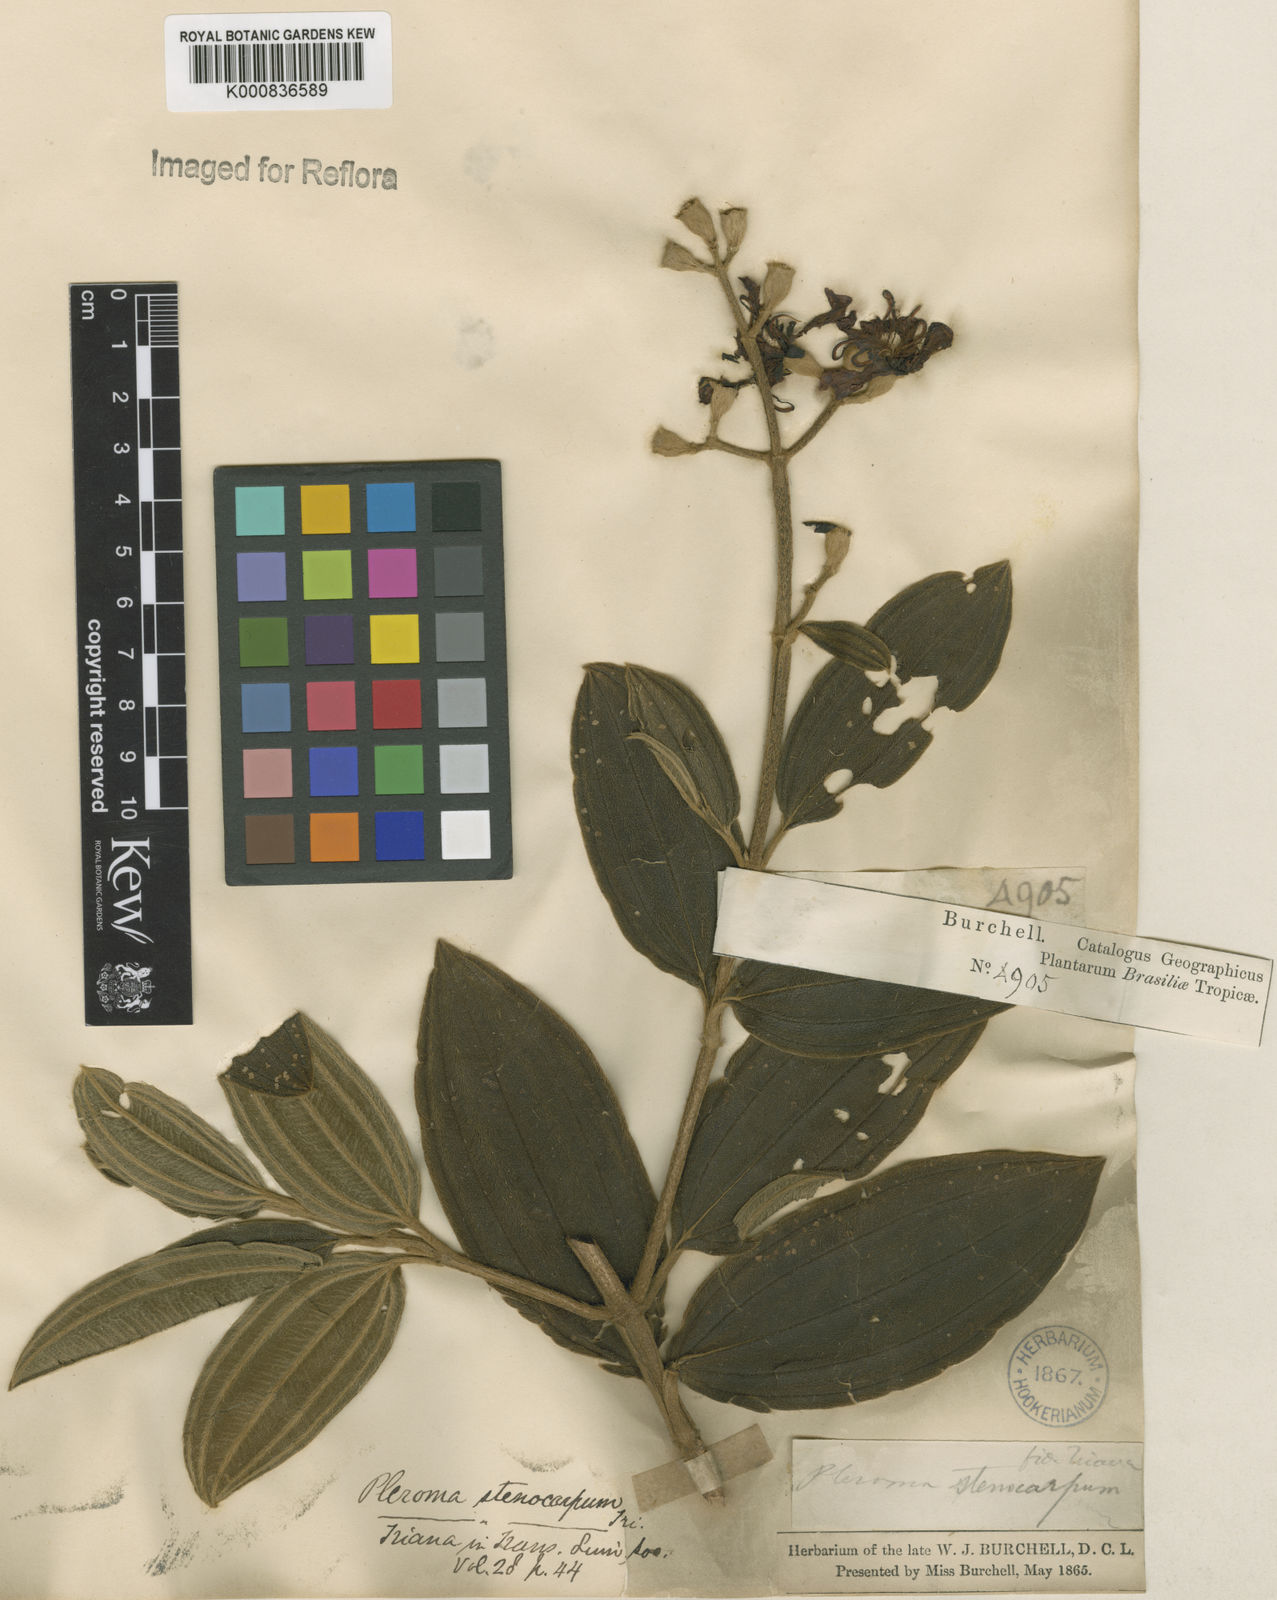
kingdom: Plantae
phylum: Tracheophyta
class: Magnoliopsida
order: Myrtales
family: Melastomataceae
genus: Pleroma
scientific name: Pleroma stenocarpum
